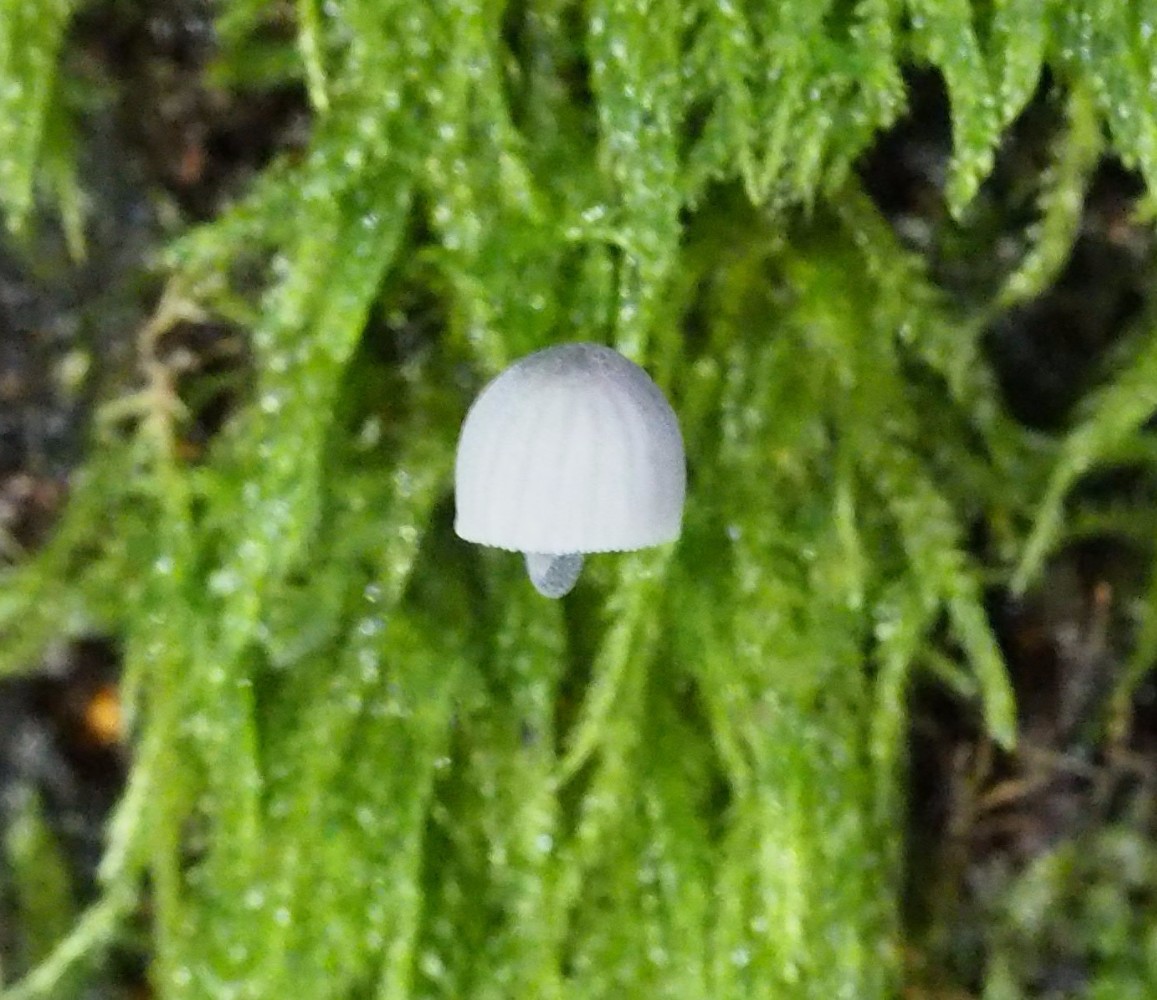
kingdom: Fungi
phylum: Basidiomycota
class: Agaricomycetes
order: Agaricales
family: Mycenaceae
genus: Mycena
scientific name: Mycena pseudocorticola
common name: gråblå bark-huesvamp
